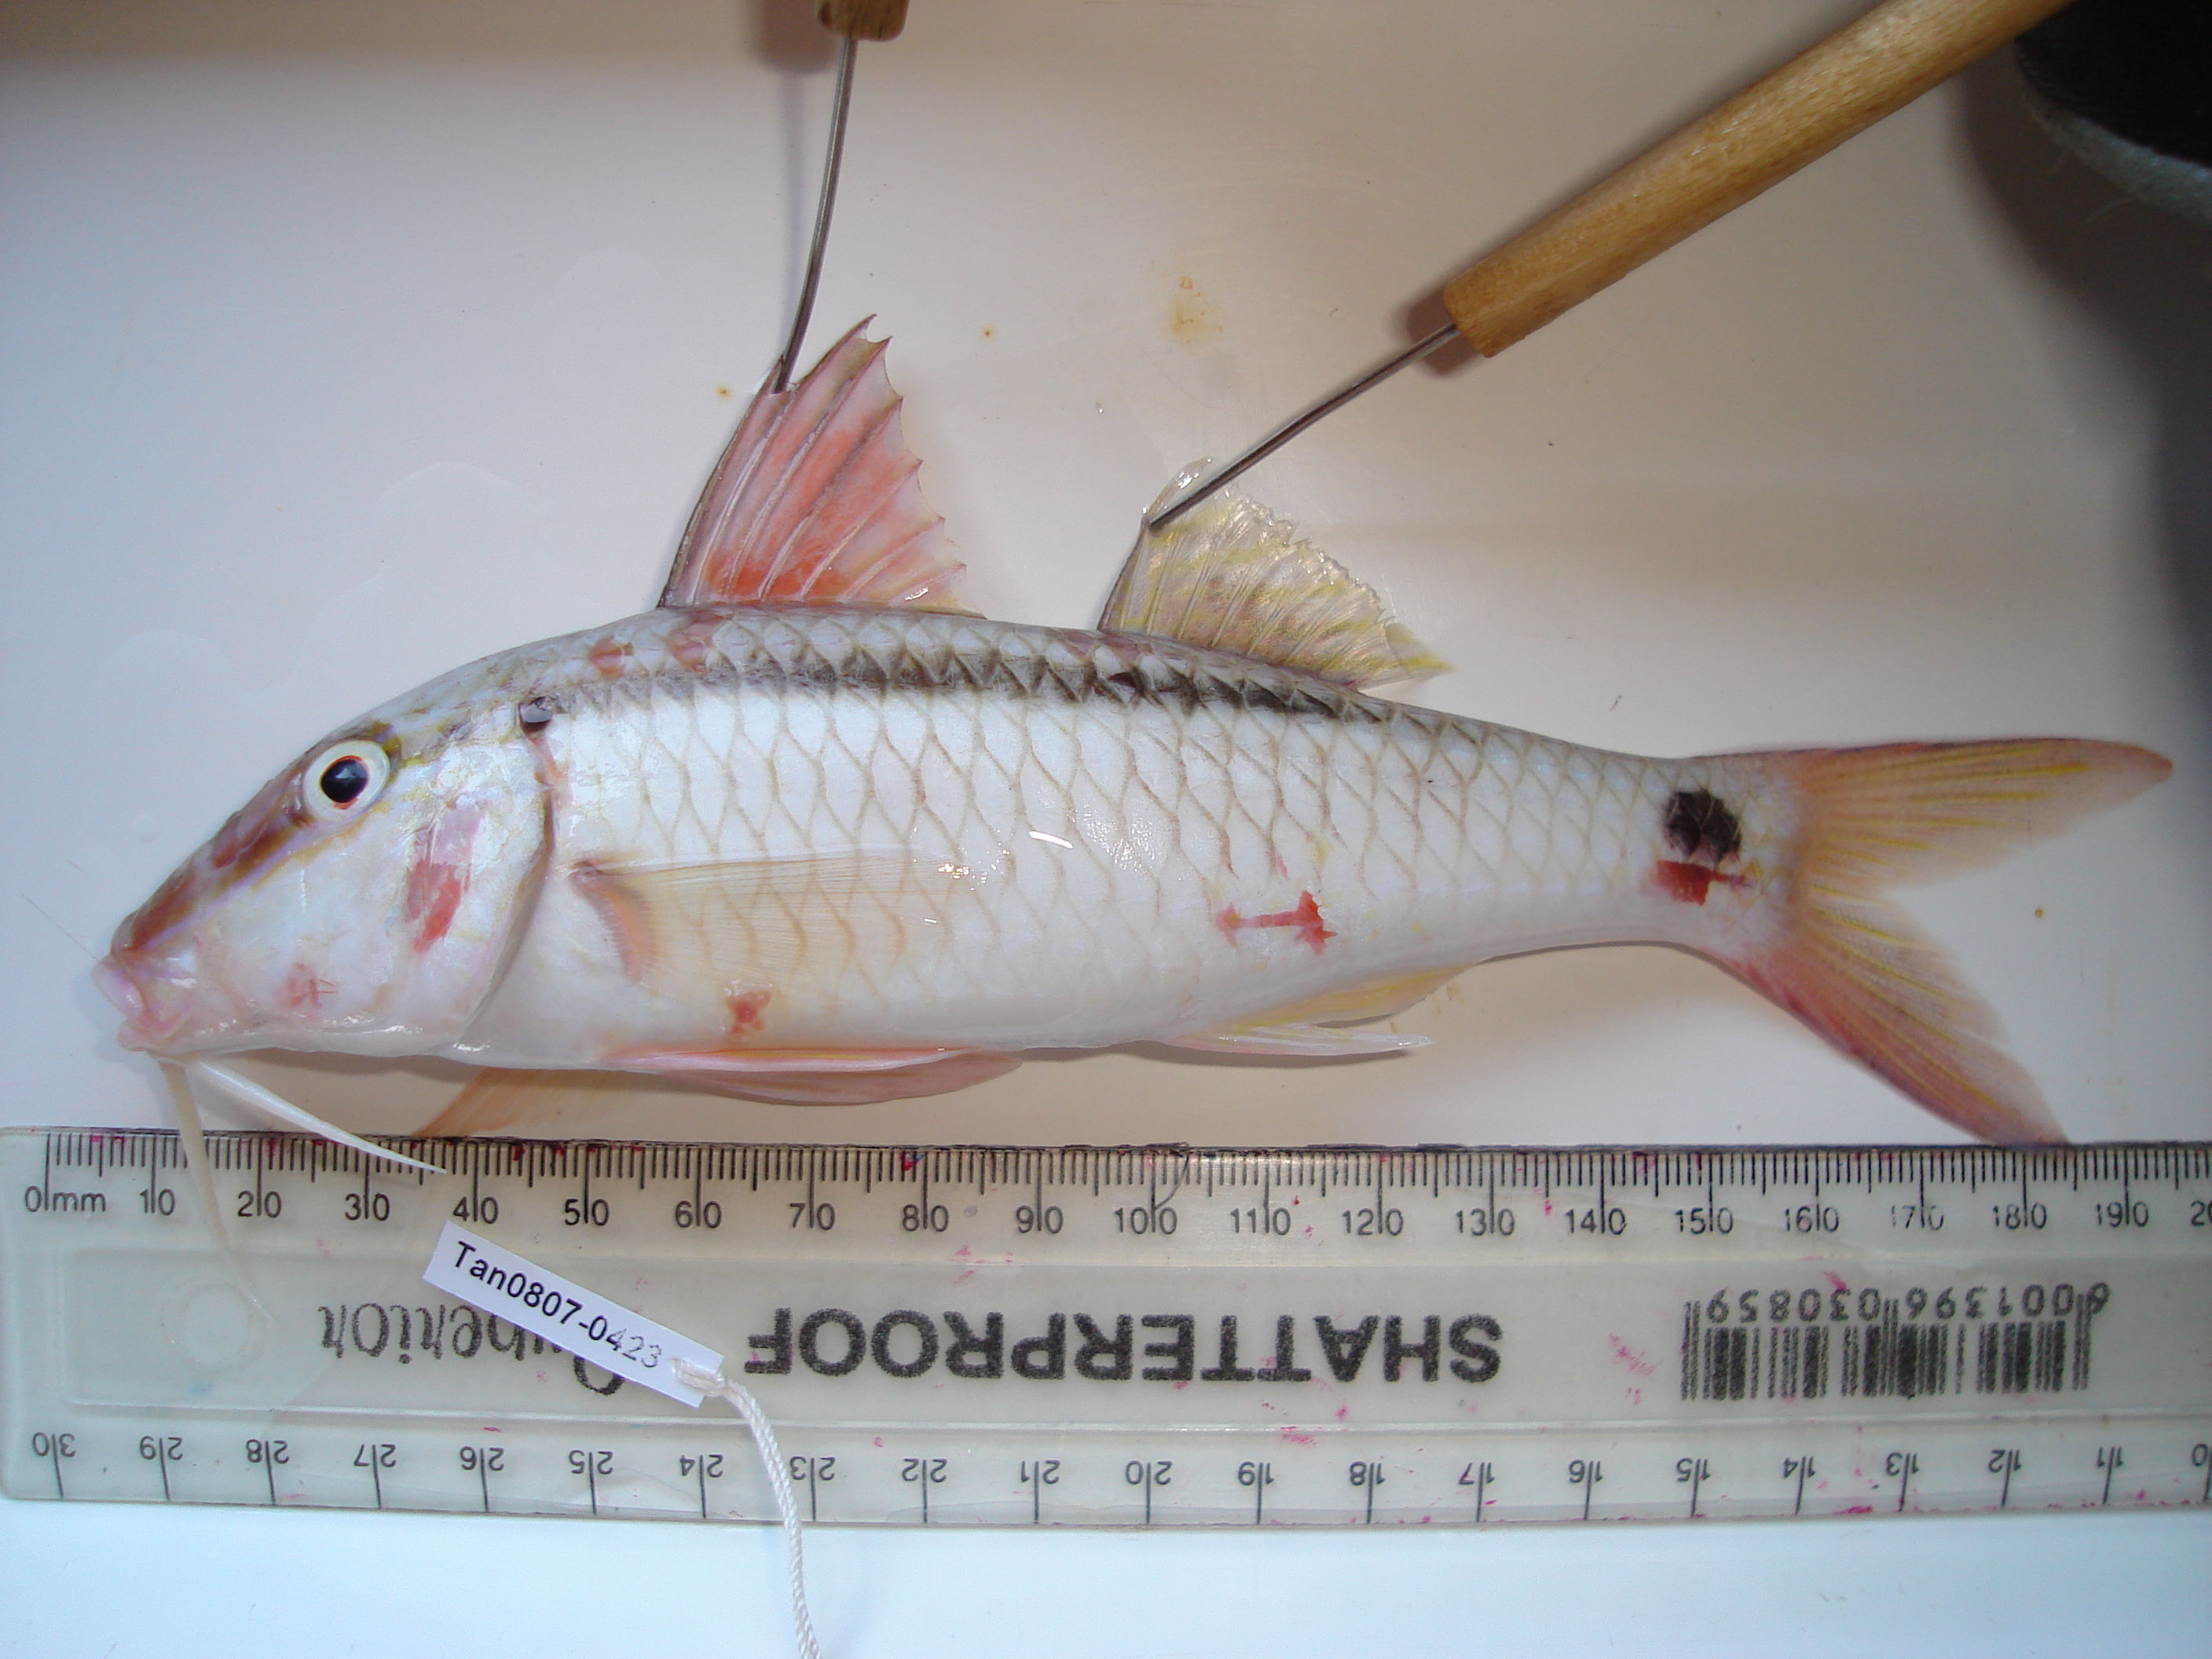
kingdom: Animalia
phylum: Chordata
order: Perciformes
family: Mullidae
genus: Parupeneus
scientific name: Parupeneus barberinus
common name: Dash-and-dot goatfish
